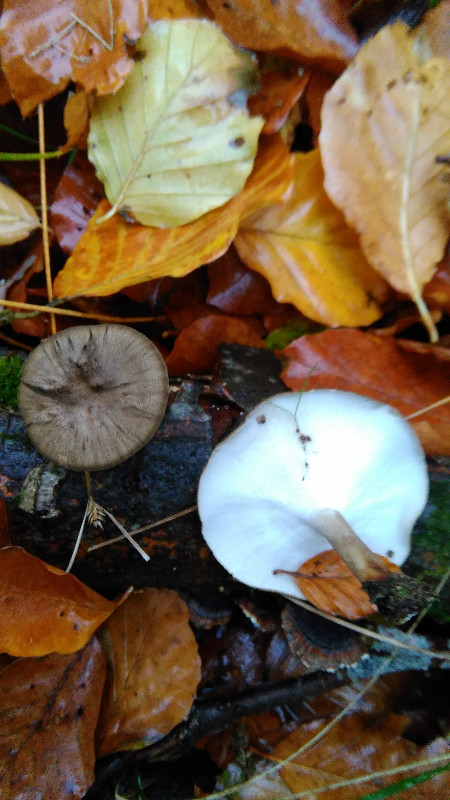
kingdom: Fungi
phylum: Basidiomycota
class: Agaricomycetes
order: Polyporales
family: Polyporaceae
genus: Lentinus
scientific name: Lentinus brumalis
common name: vinter-stilkporesvamp
